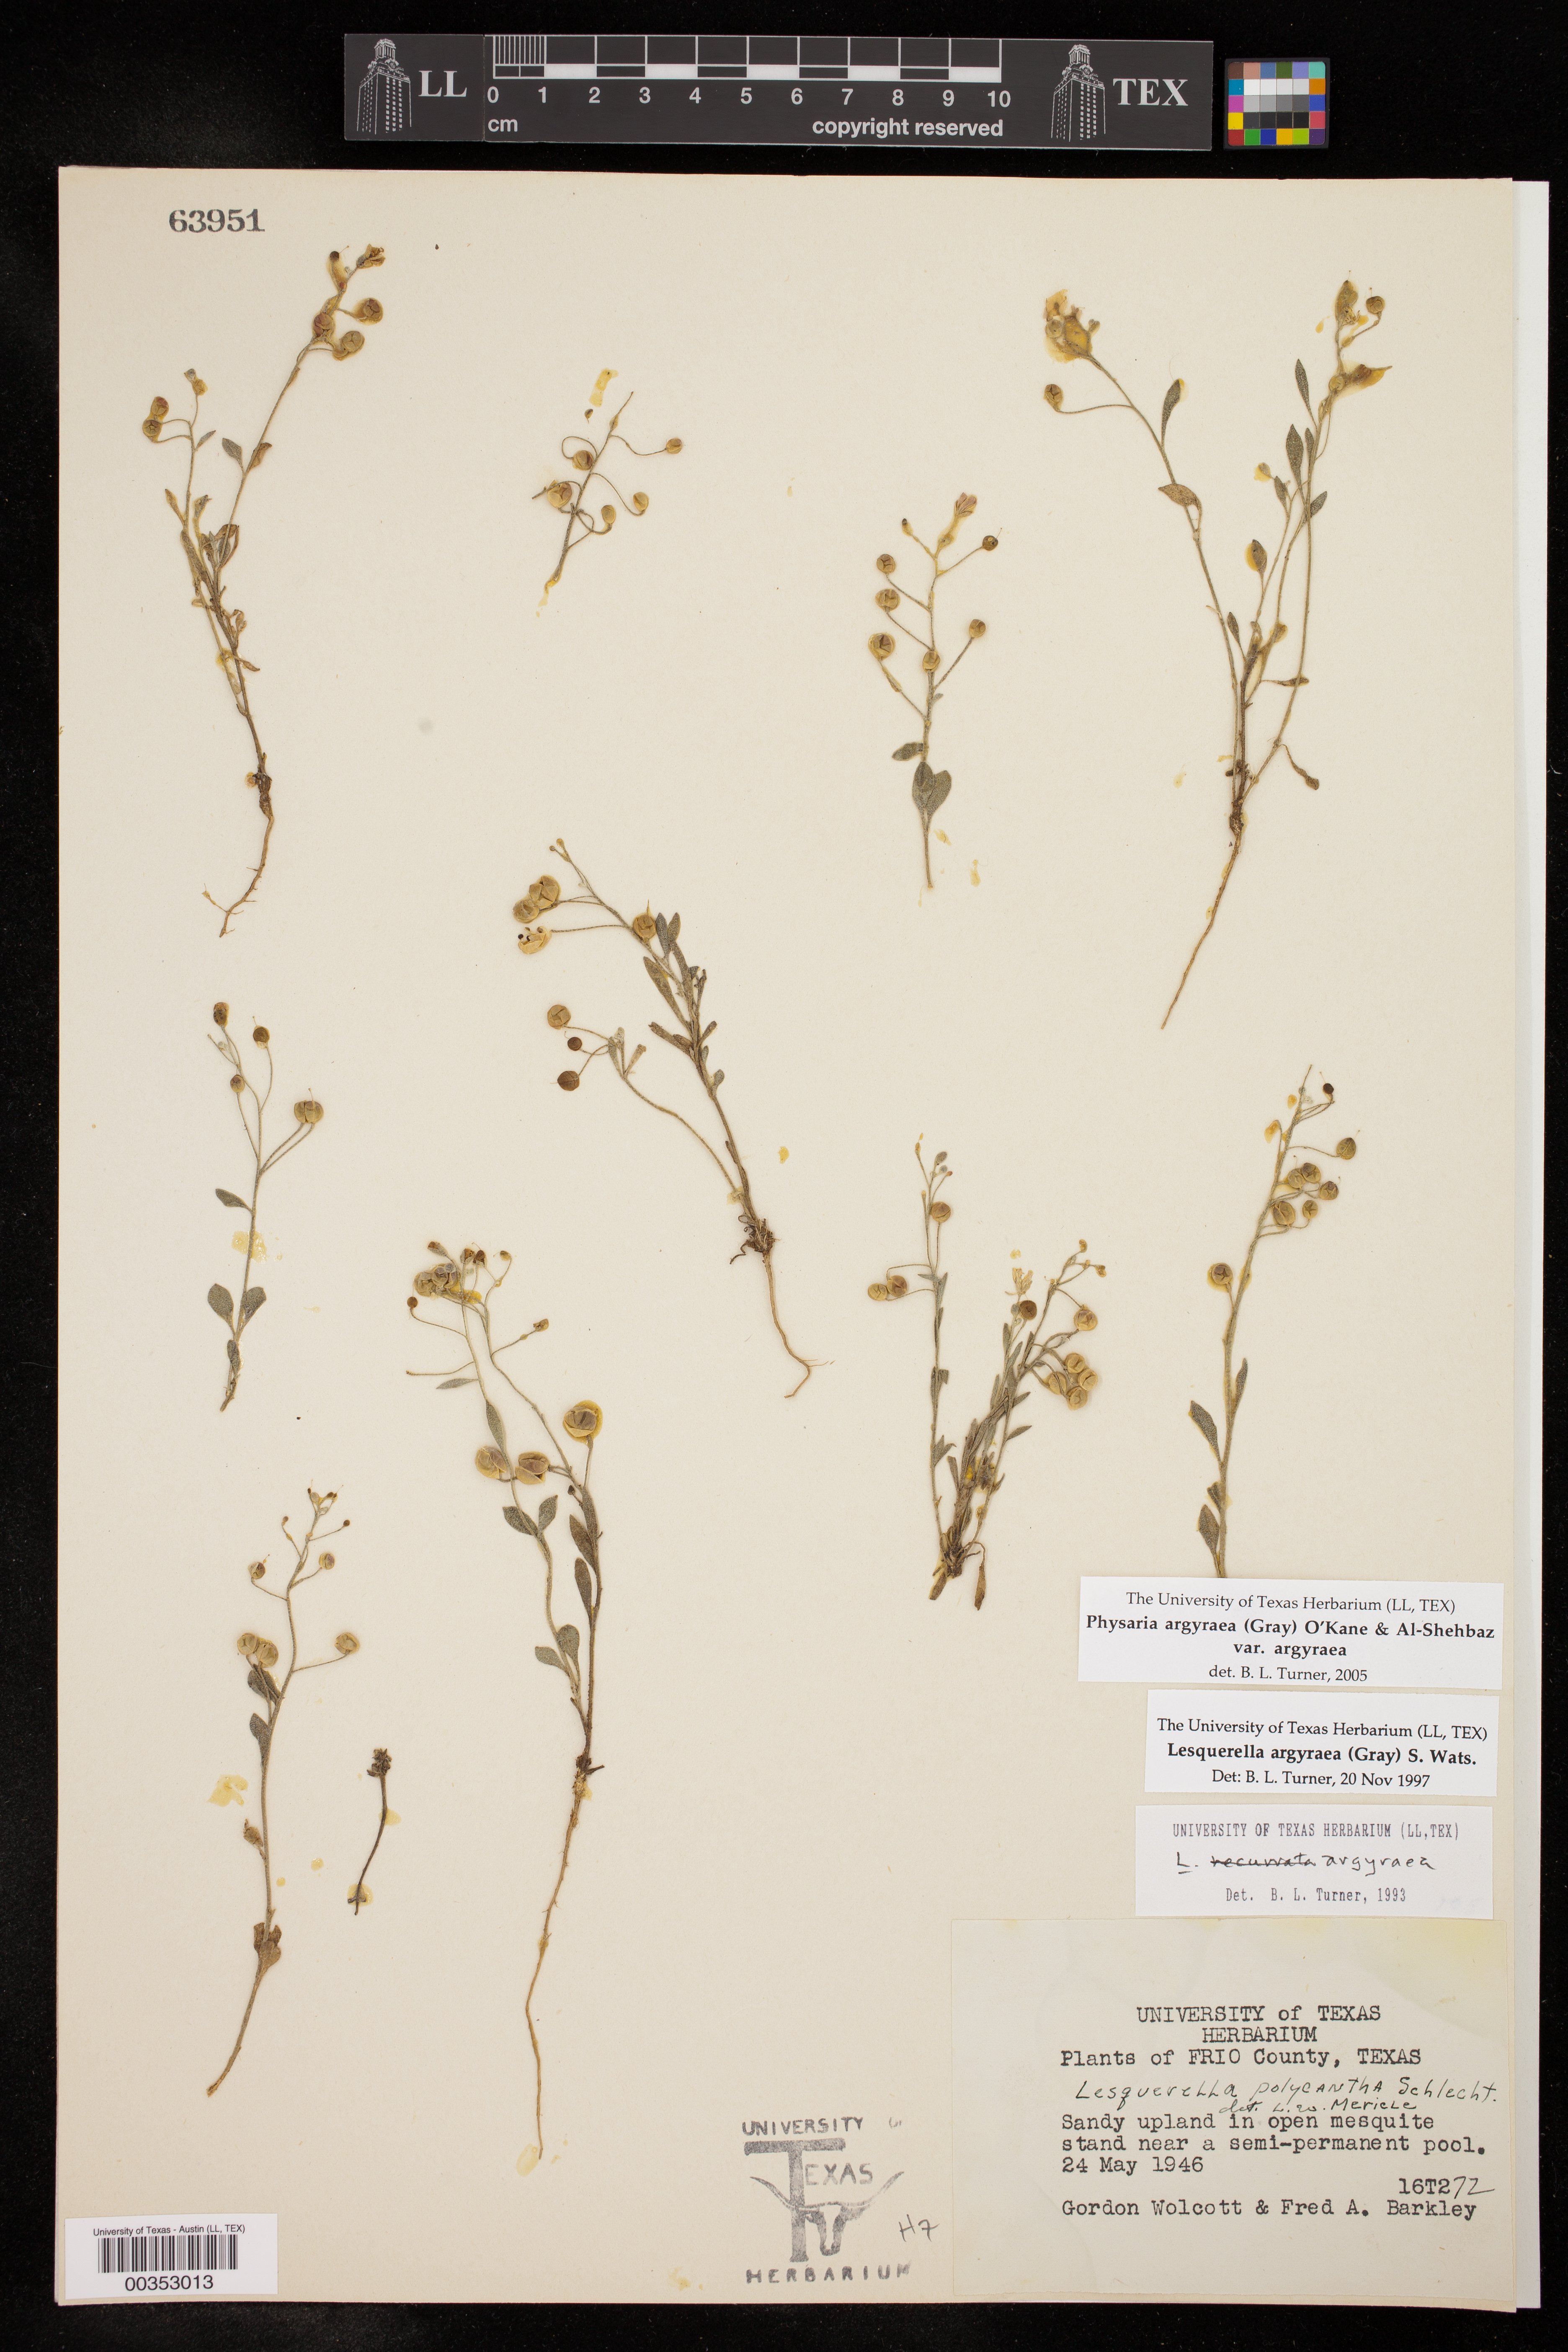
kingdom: Plantae
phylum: Tracheophyta
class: Magnoliopsida
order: Brassicales
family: Brassicaceae
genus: Physaria
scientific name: Physaria argyraea
